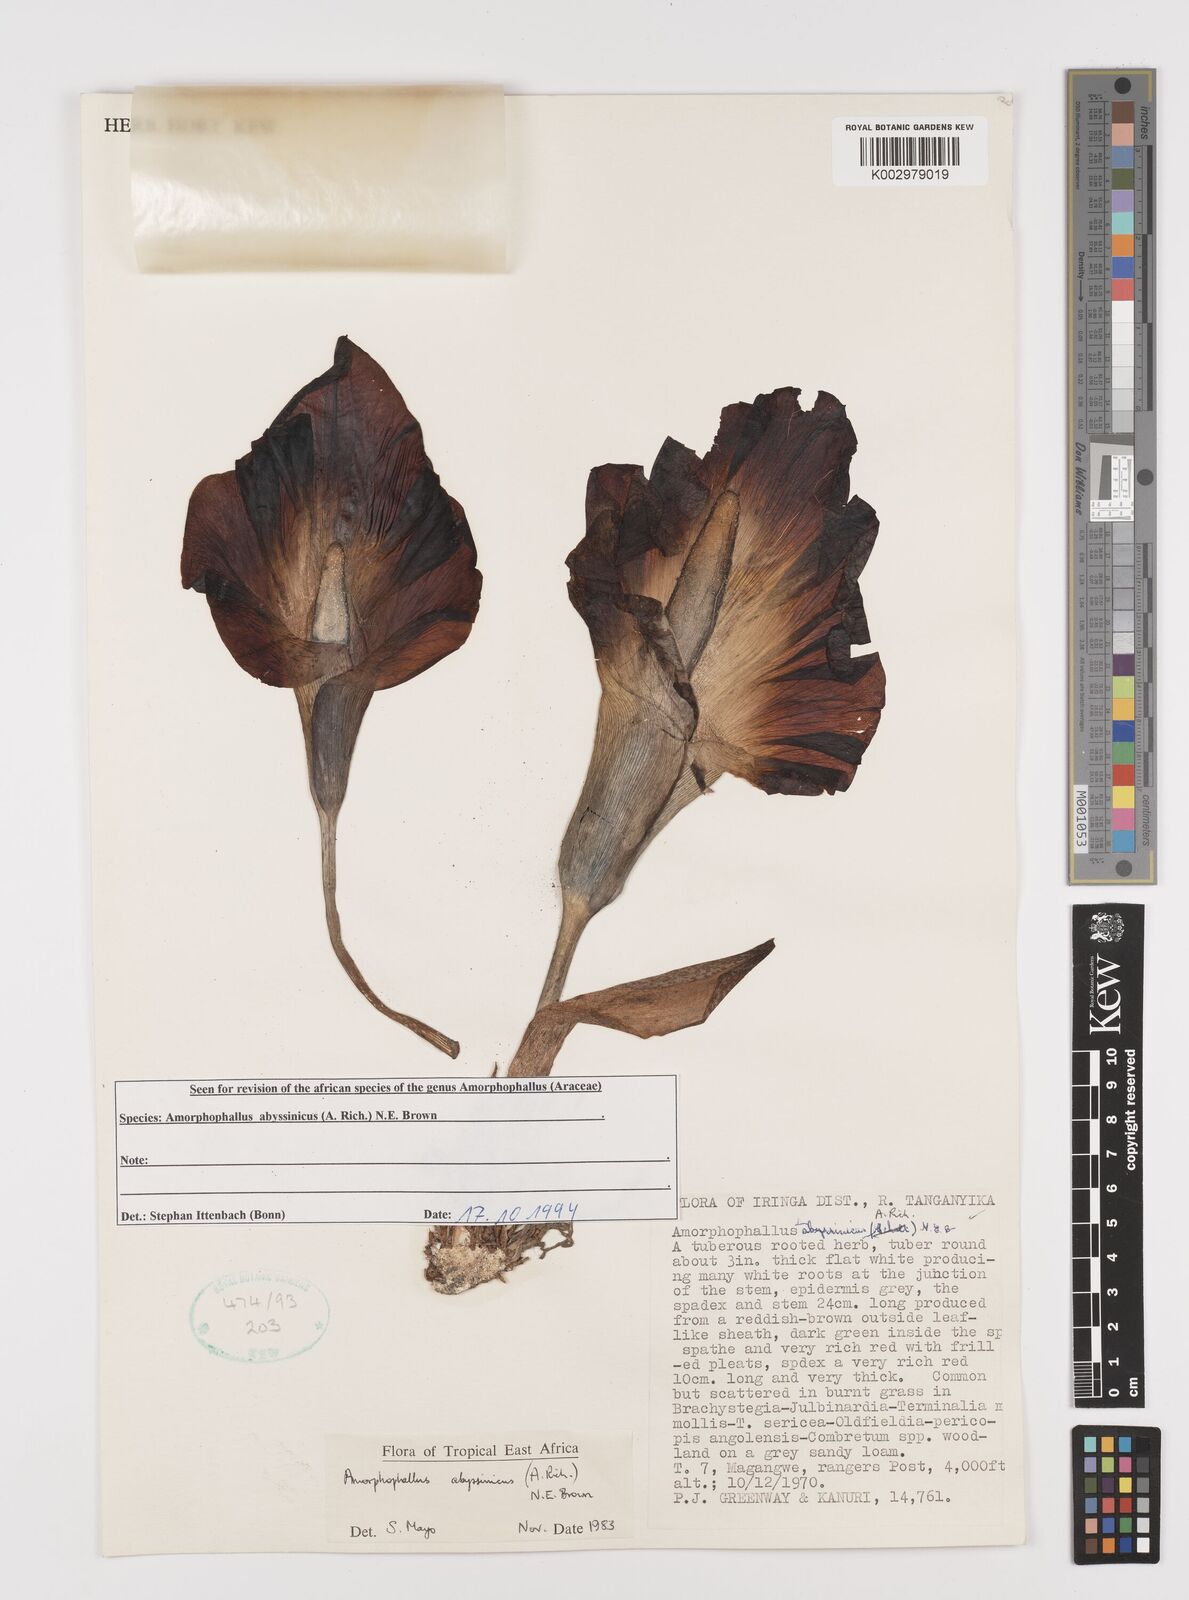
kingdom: Plantae
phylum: Tracheophyta
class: Liliopsida
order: Alismatales
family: Araceae
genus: Amorphophallus
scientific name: Amorphophallus abyssinicus
